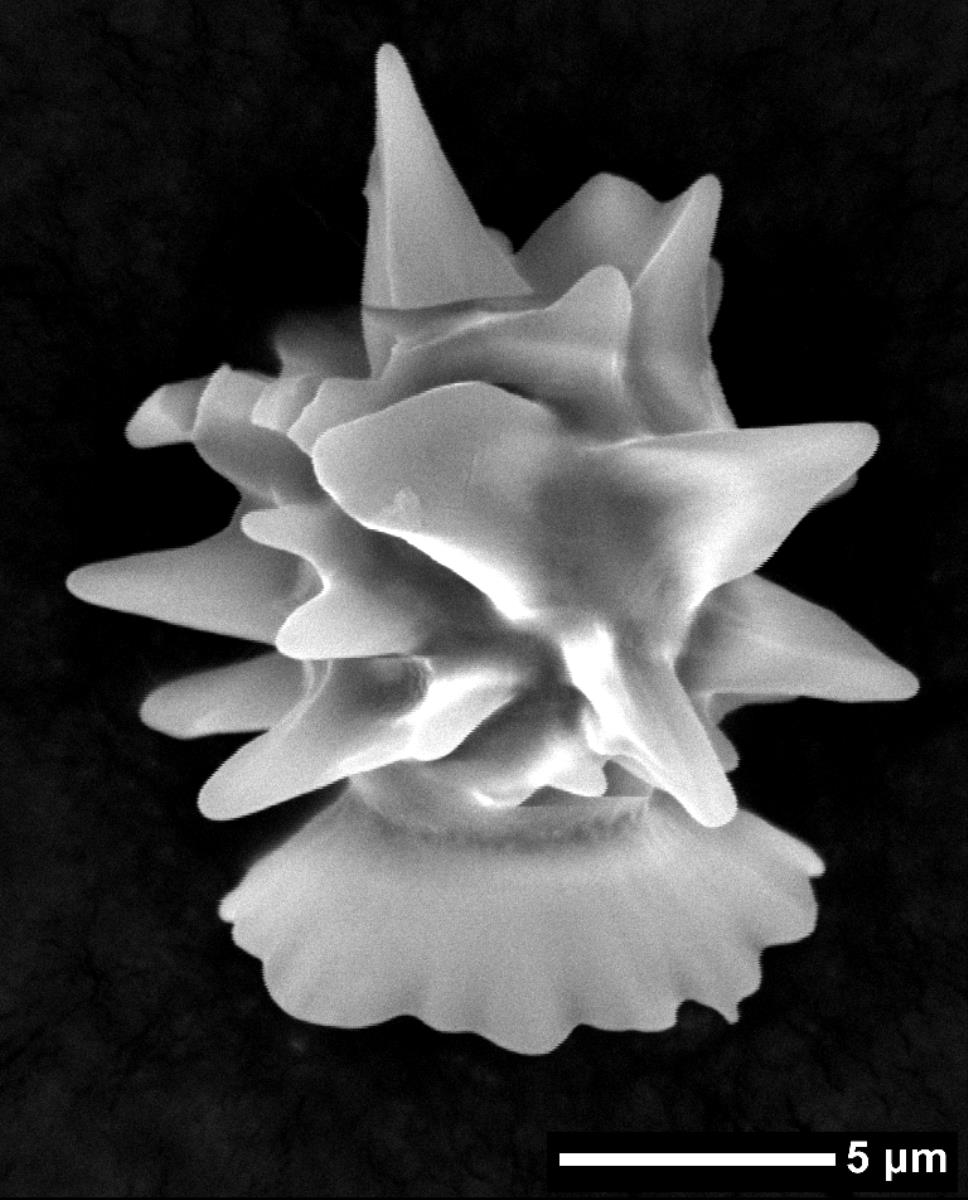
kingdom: Fungi
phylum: Basidiomycota
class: Agaricomycetes
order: Agaricales
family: Stephanosporaceae
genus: Stephanospora
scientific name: Stephanospora aorangi
